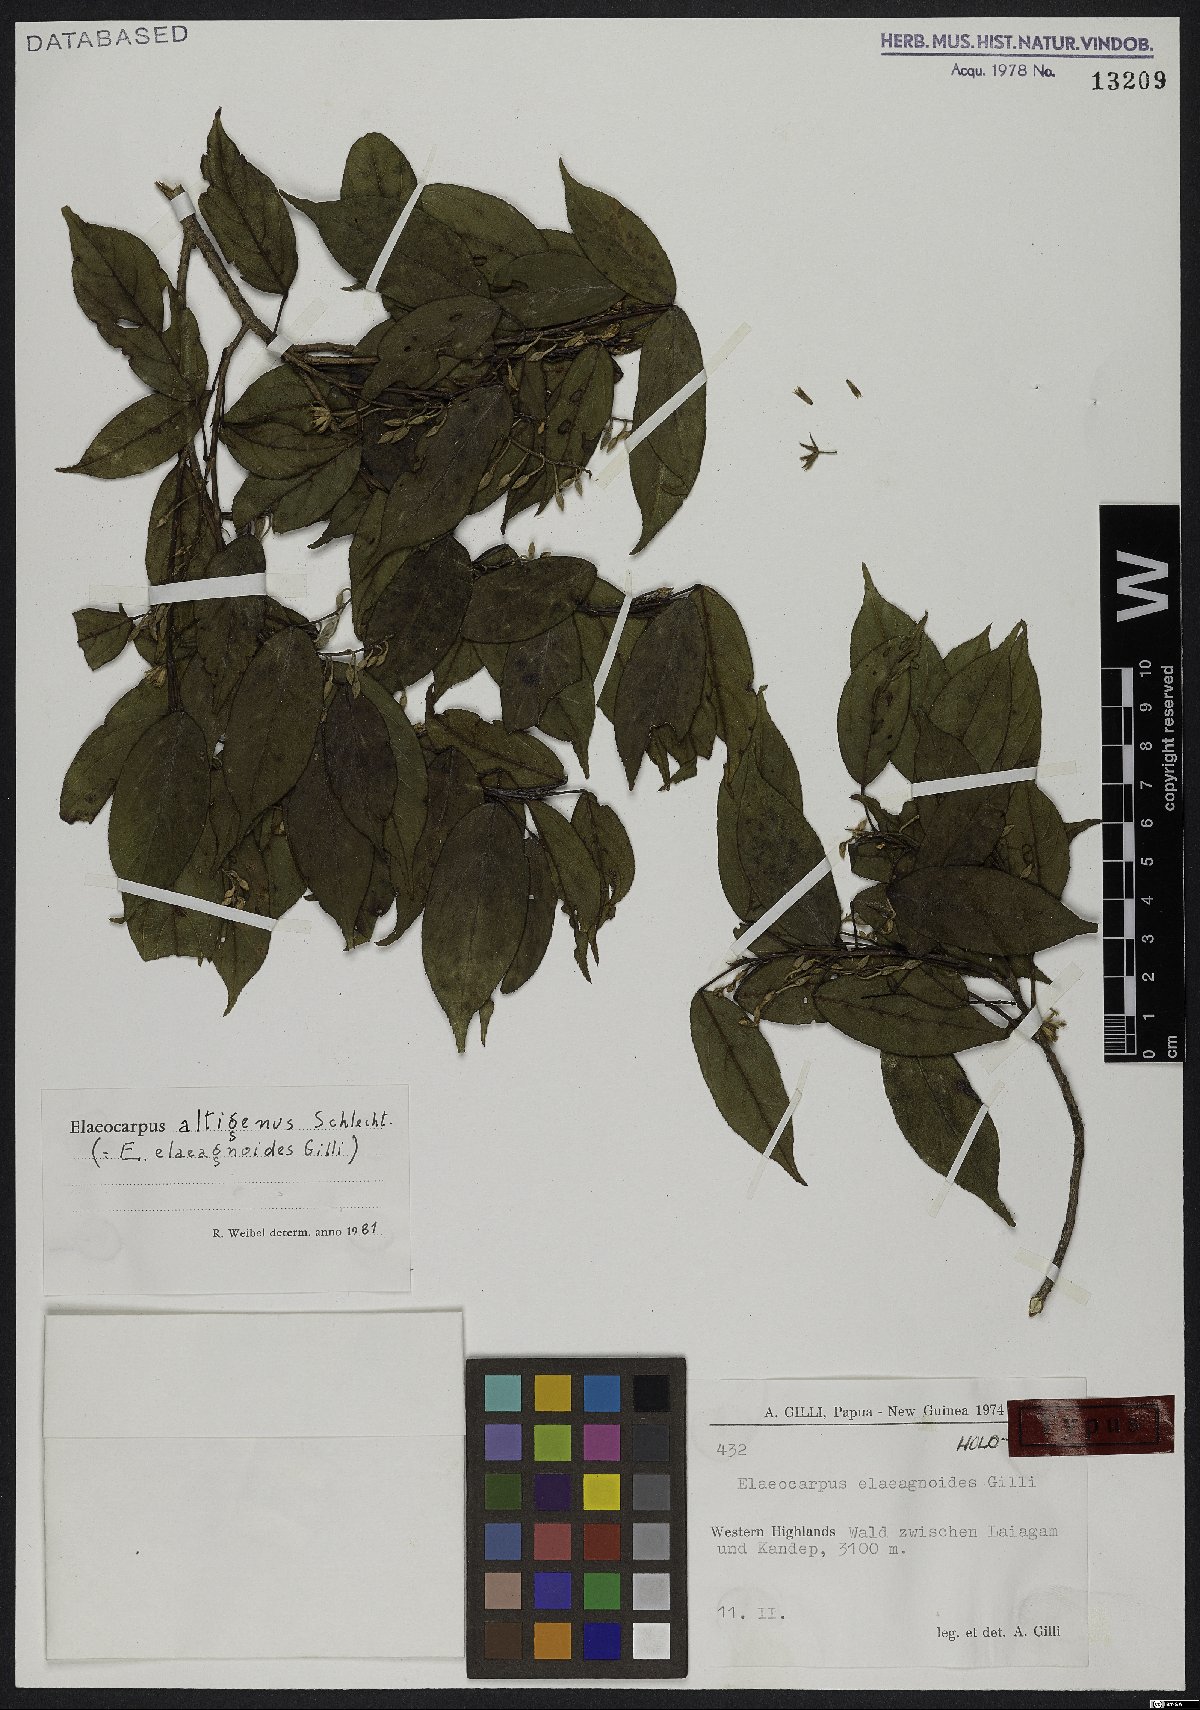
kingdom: Plantae
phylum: Tracheophyta
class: Magnoliopsida
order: Oxalidales
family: Elaeocarpaceae
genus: Elaeocarpus
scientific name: Elaeocarpus altigenus
